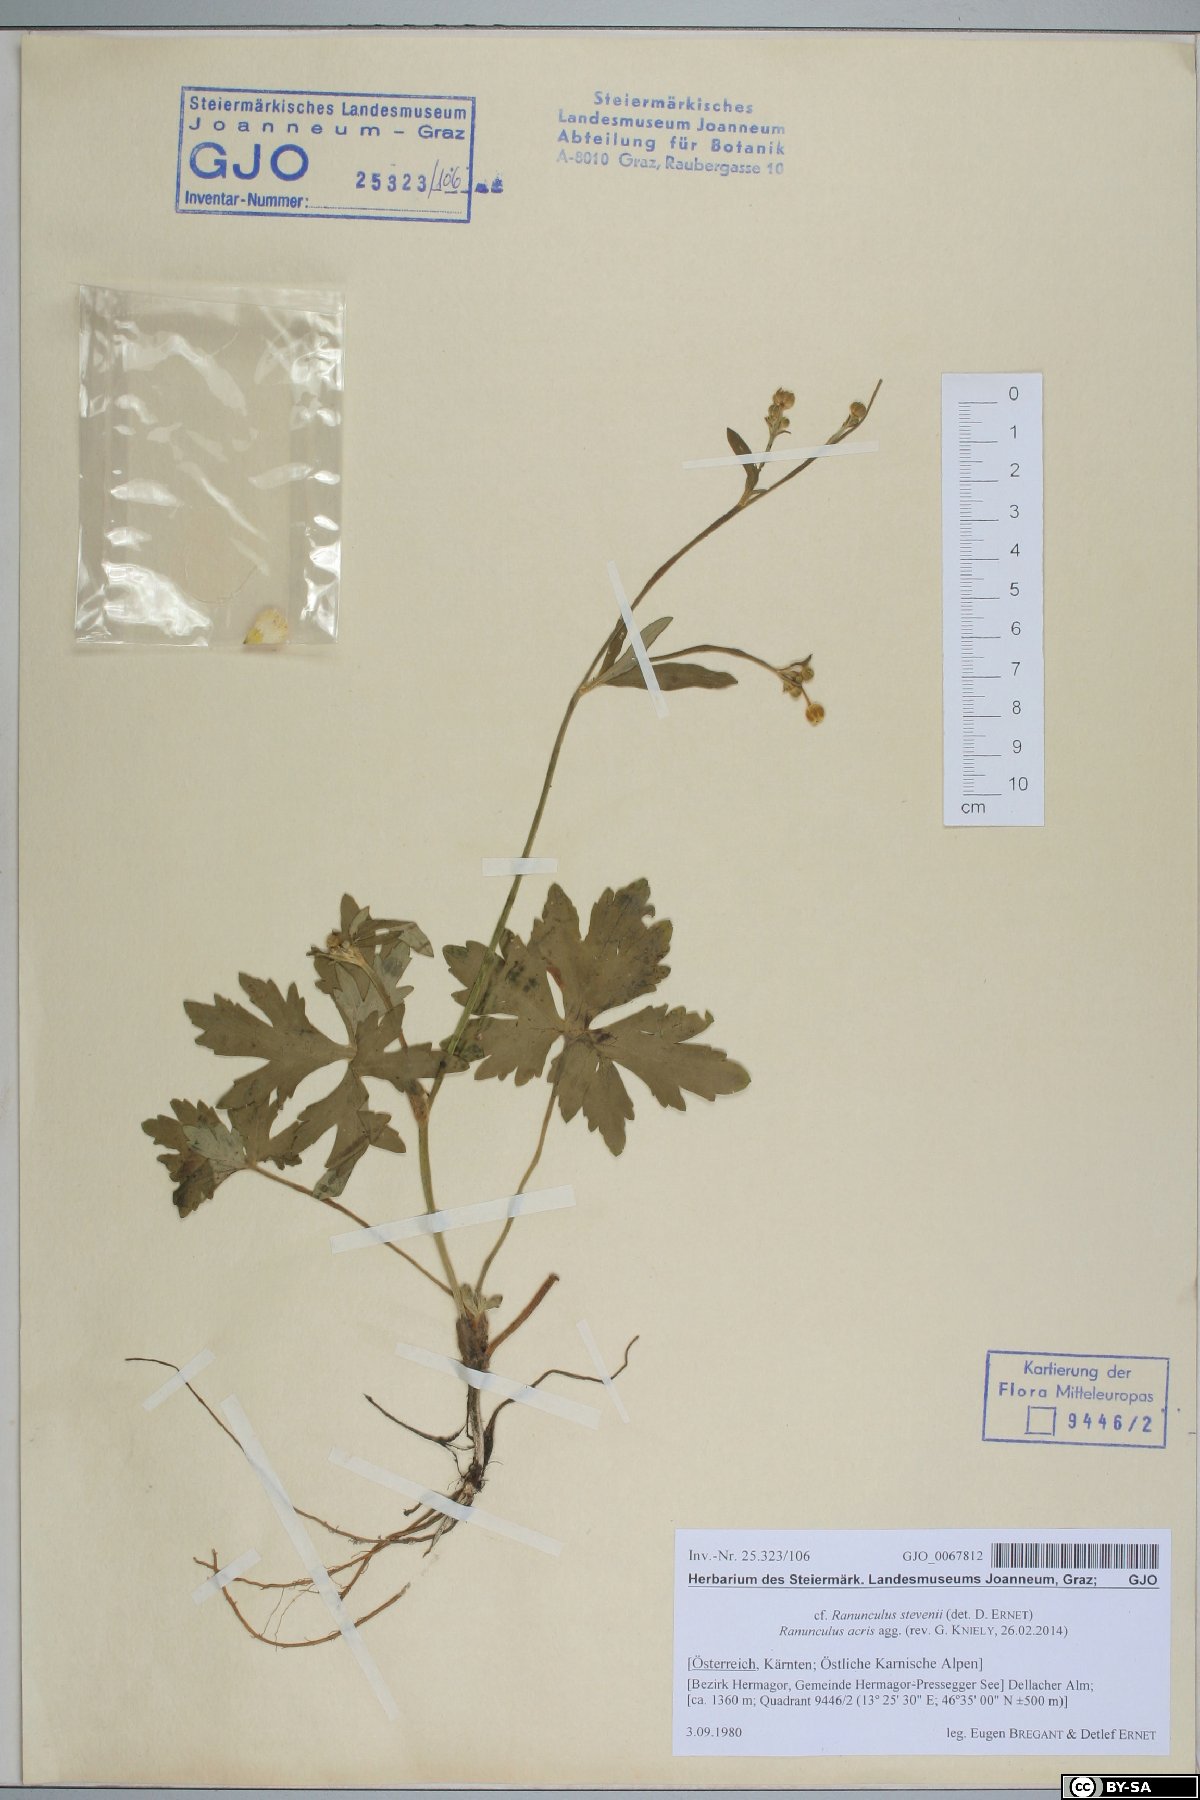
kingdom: Plantae
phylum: Tracheophyta
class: Magnoliopsida
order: Ranunculales
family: Ranunculaceae
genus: Ranunculus
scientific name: Ranunculus acris
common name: Meadow buttercup
